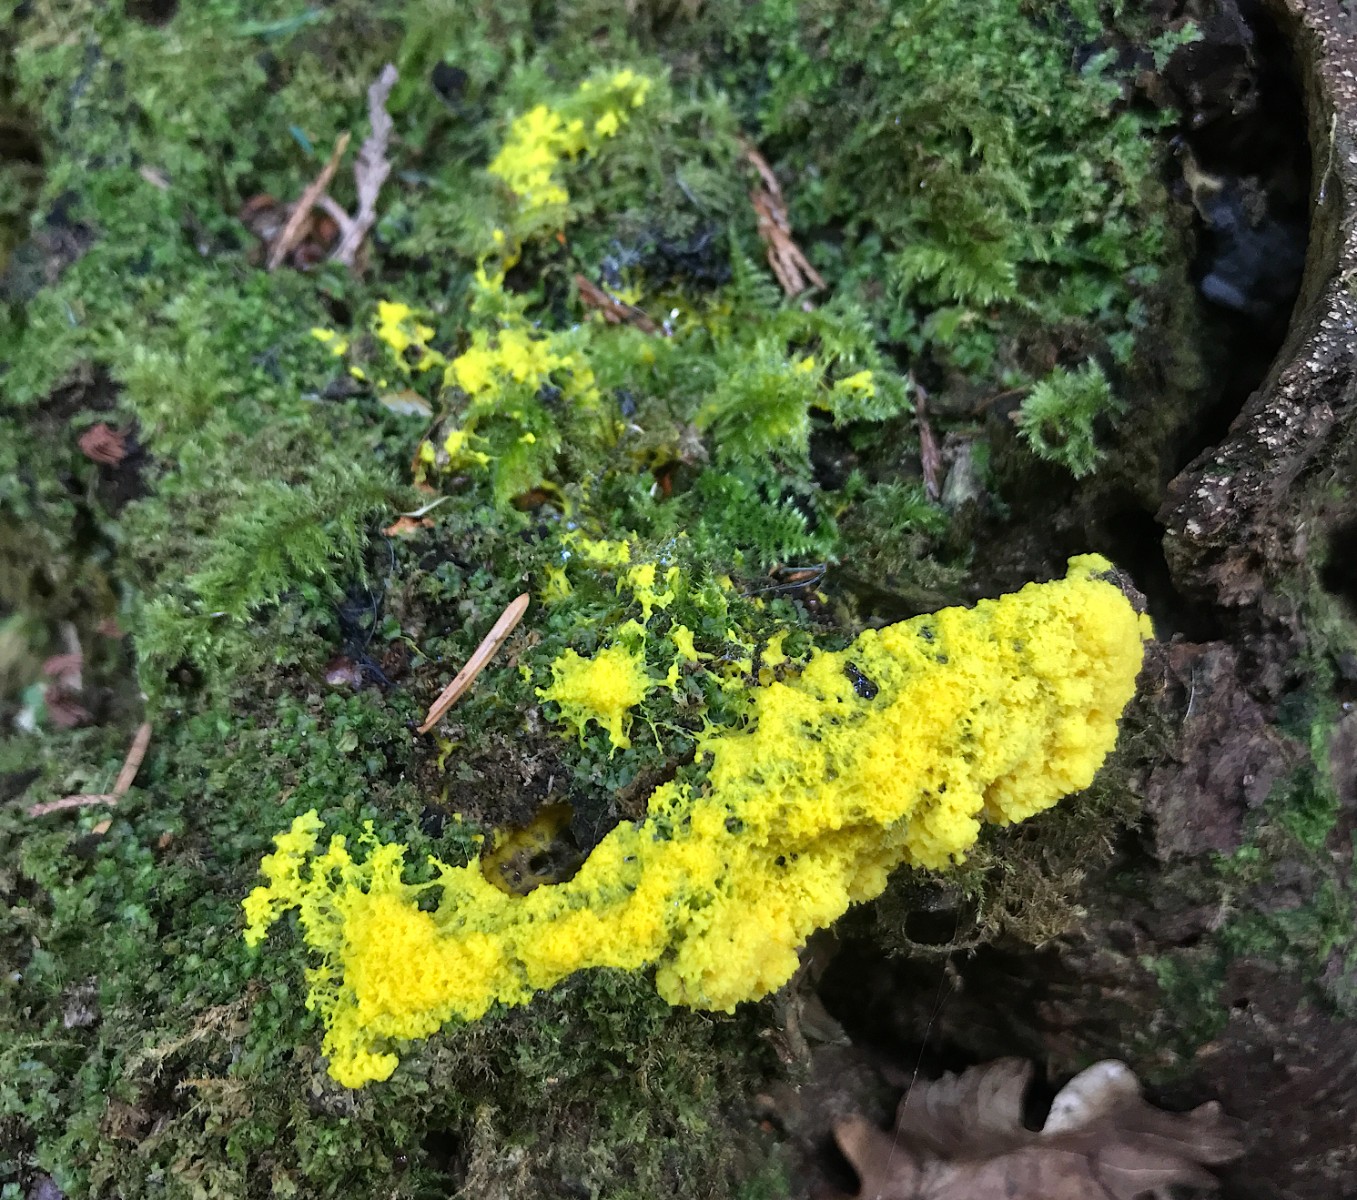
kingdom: Protozoa
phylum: Mycetozoa
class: Myxomycetes
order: Physarales
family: Physaraceae
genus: Fuligo
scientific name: Fuligo septica
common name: gul troldsmør
